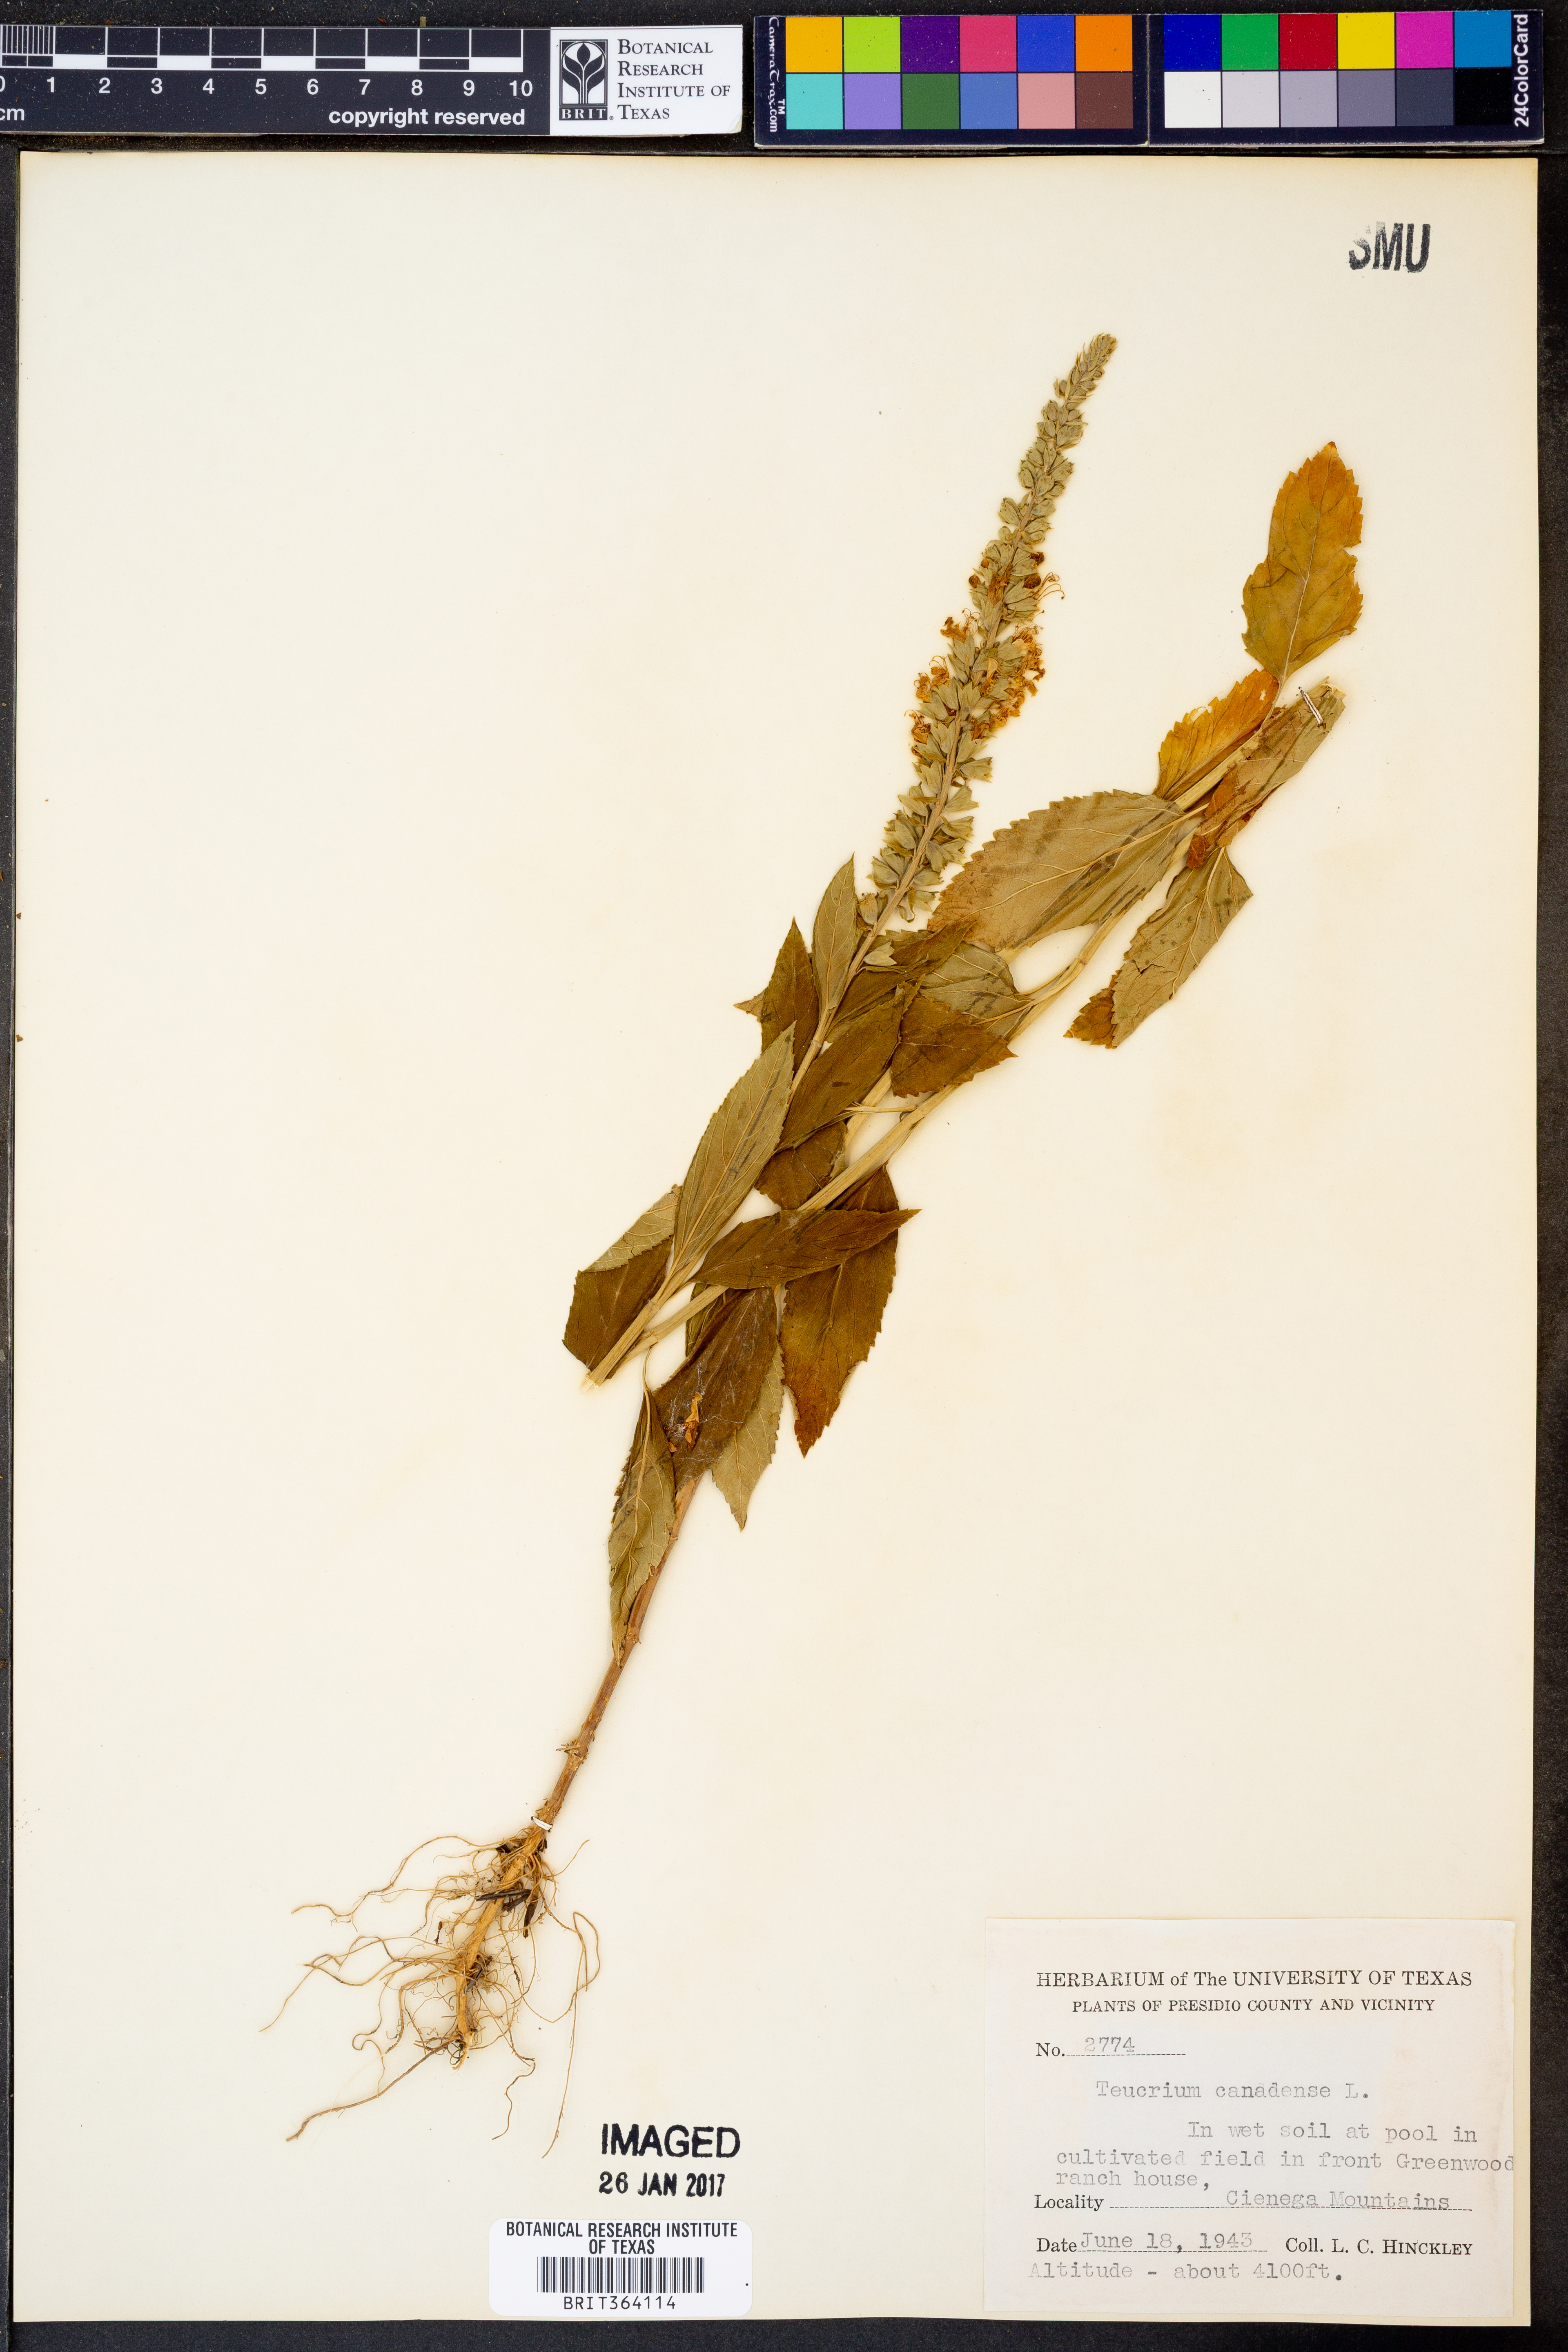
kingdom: Plantae
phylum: Tracheophyta
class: Magnoliopsida
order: Lamiales
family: Lamiaceae
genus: Teucrium
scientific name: Teucrium canadense
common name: American germander
